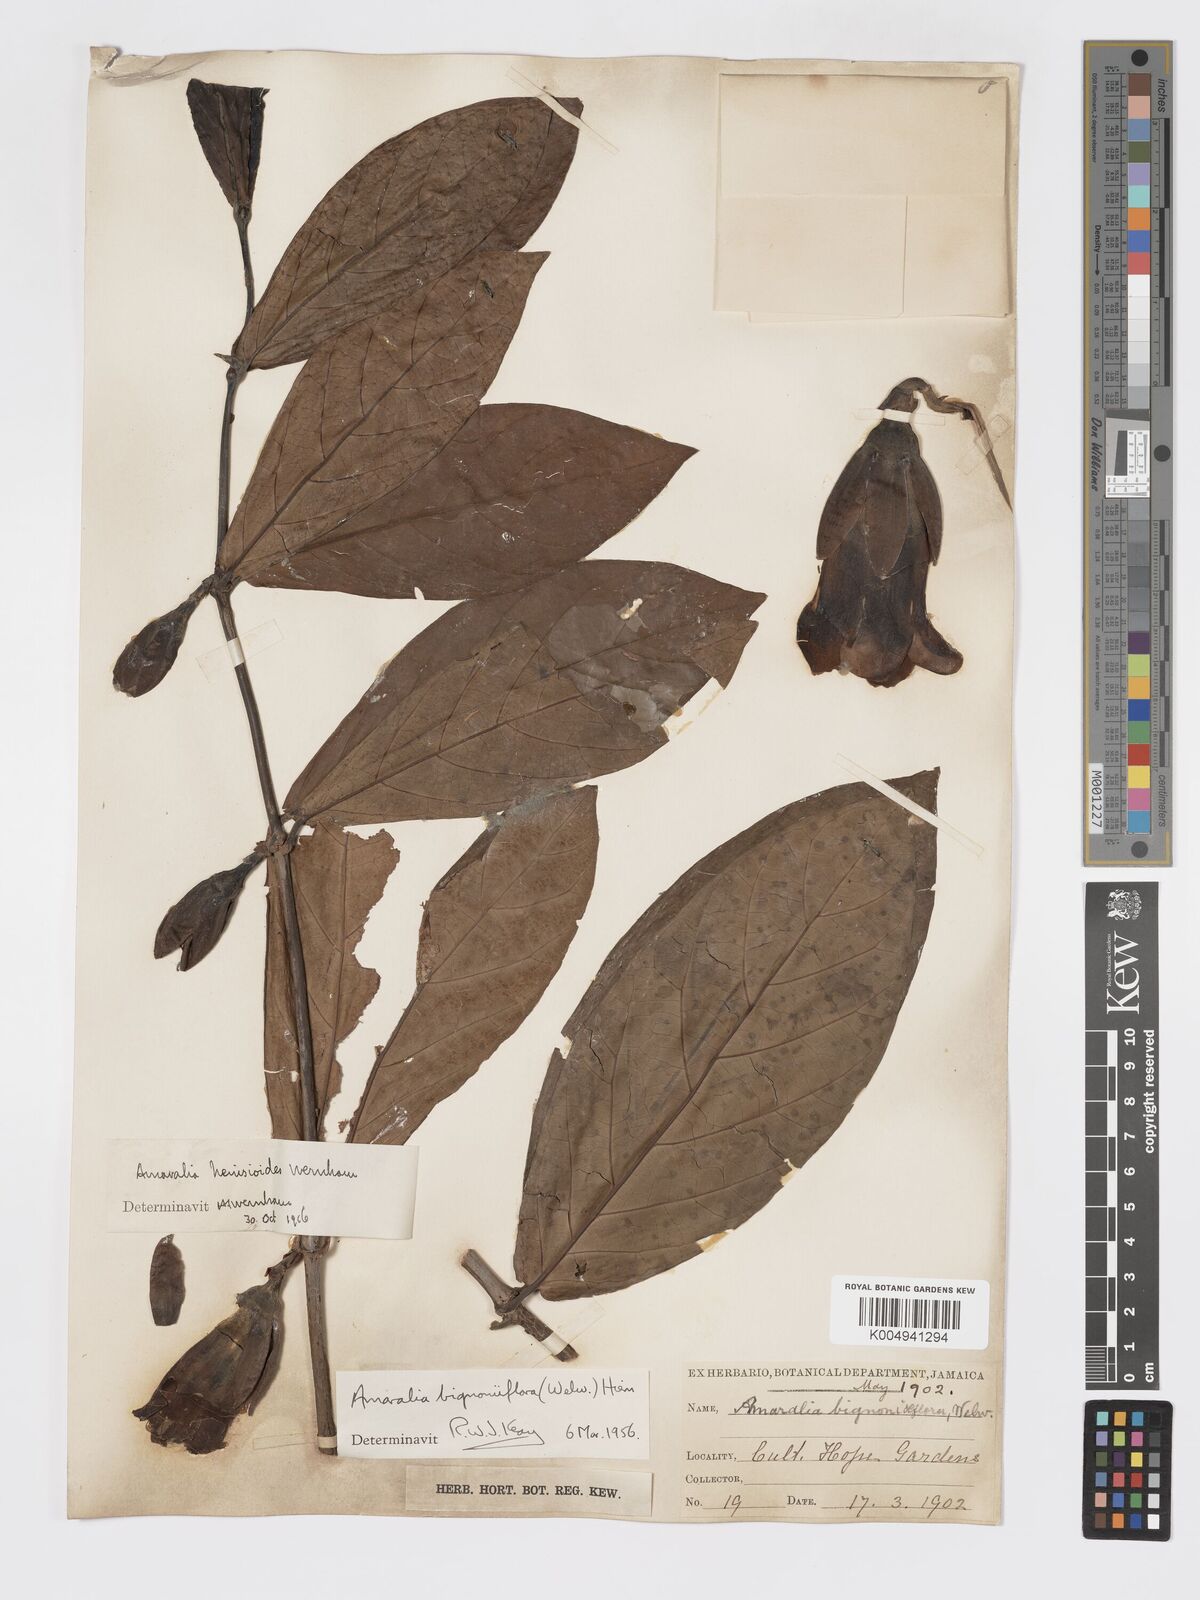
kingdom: Plantae
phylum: Tracheophyta
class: Magnoliopsida
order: Gentianales
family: Rubiaceae
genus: Sherbournia
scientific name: Sherbournia bignoniiflora
